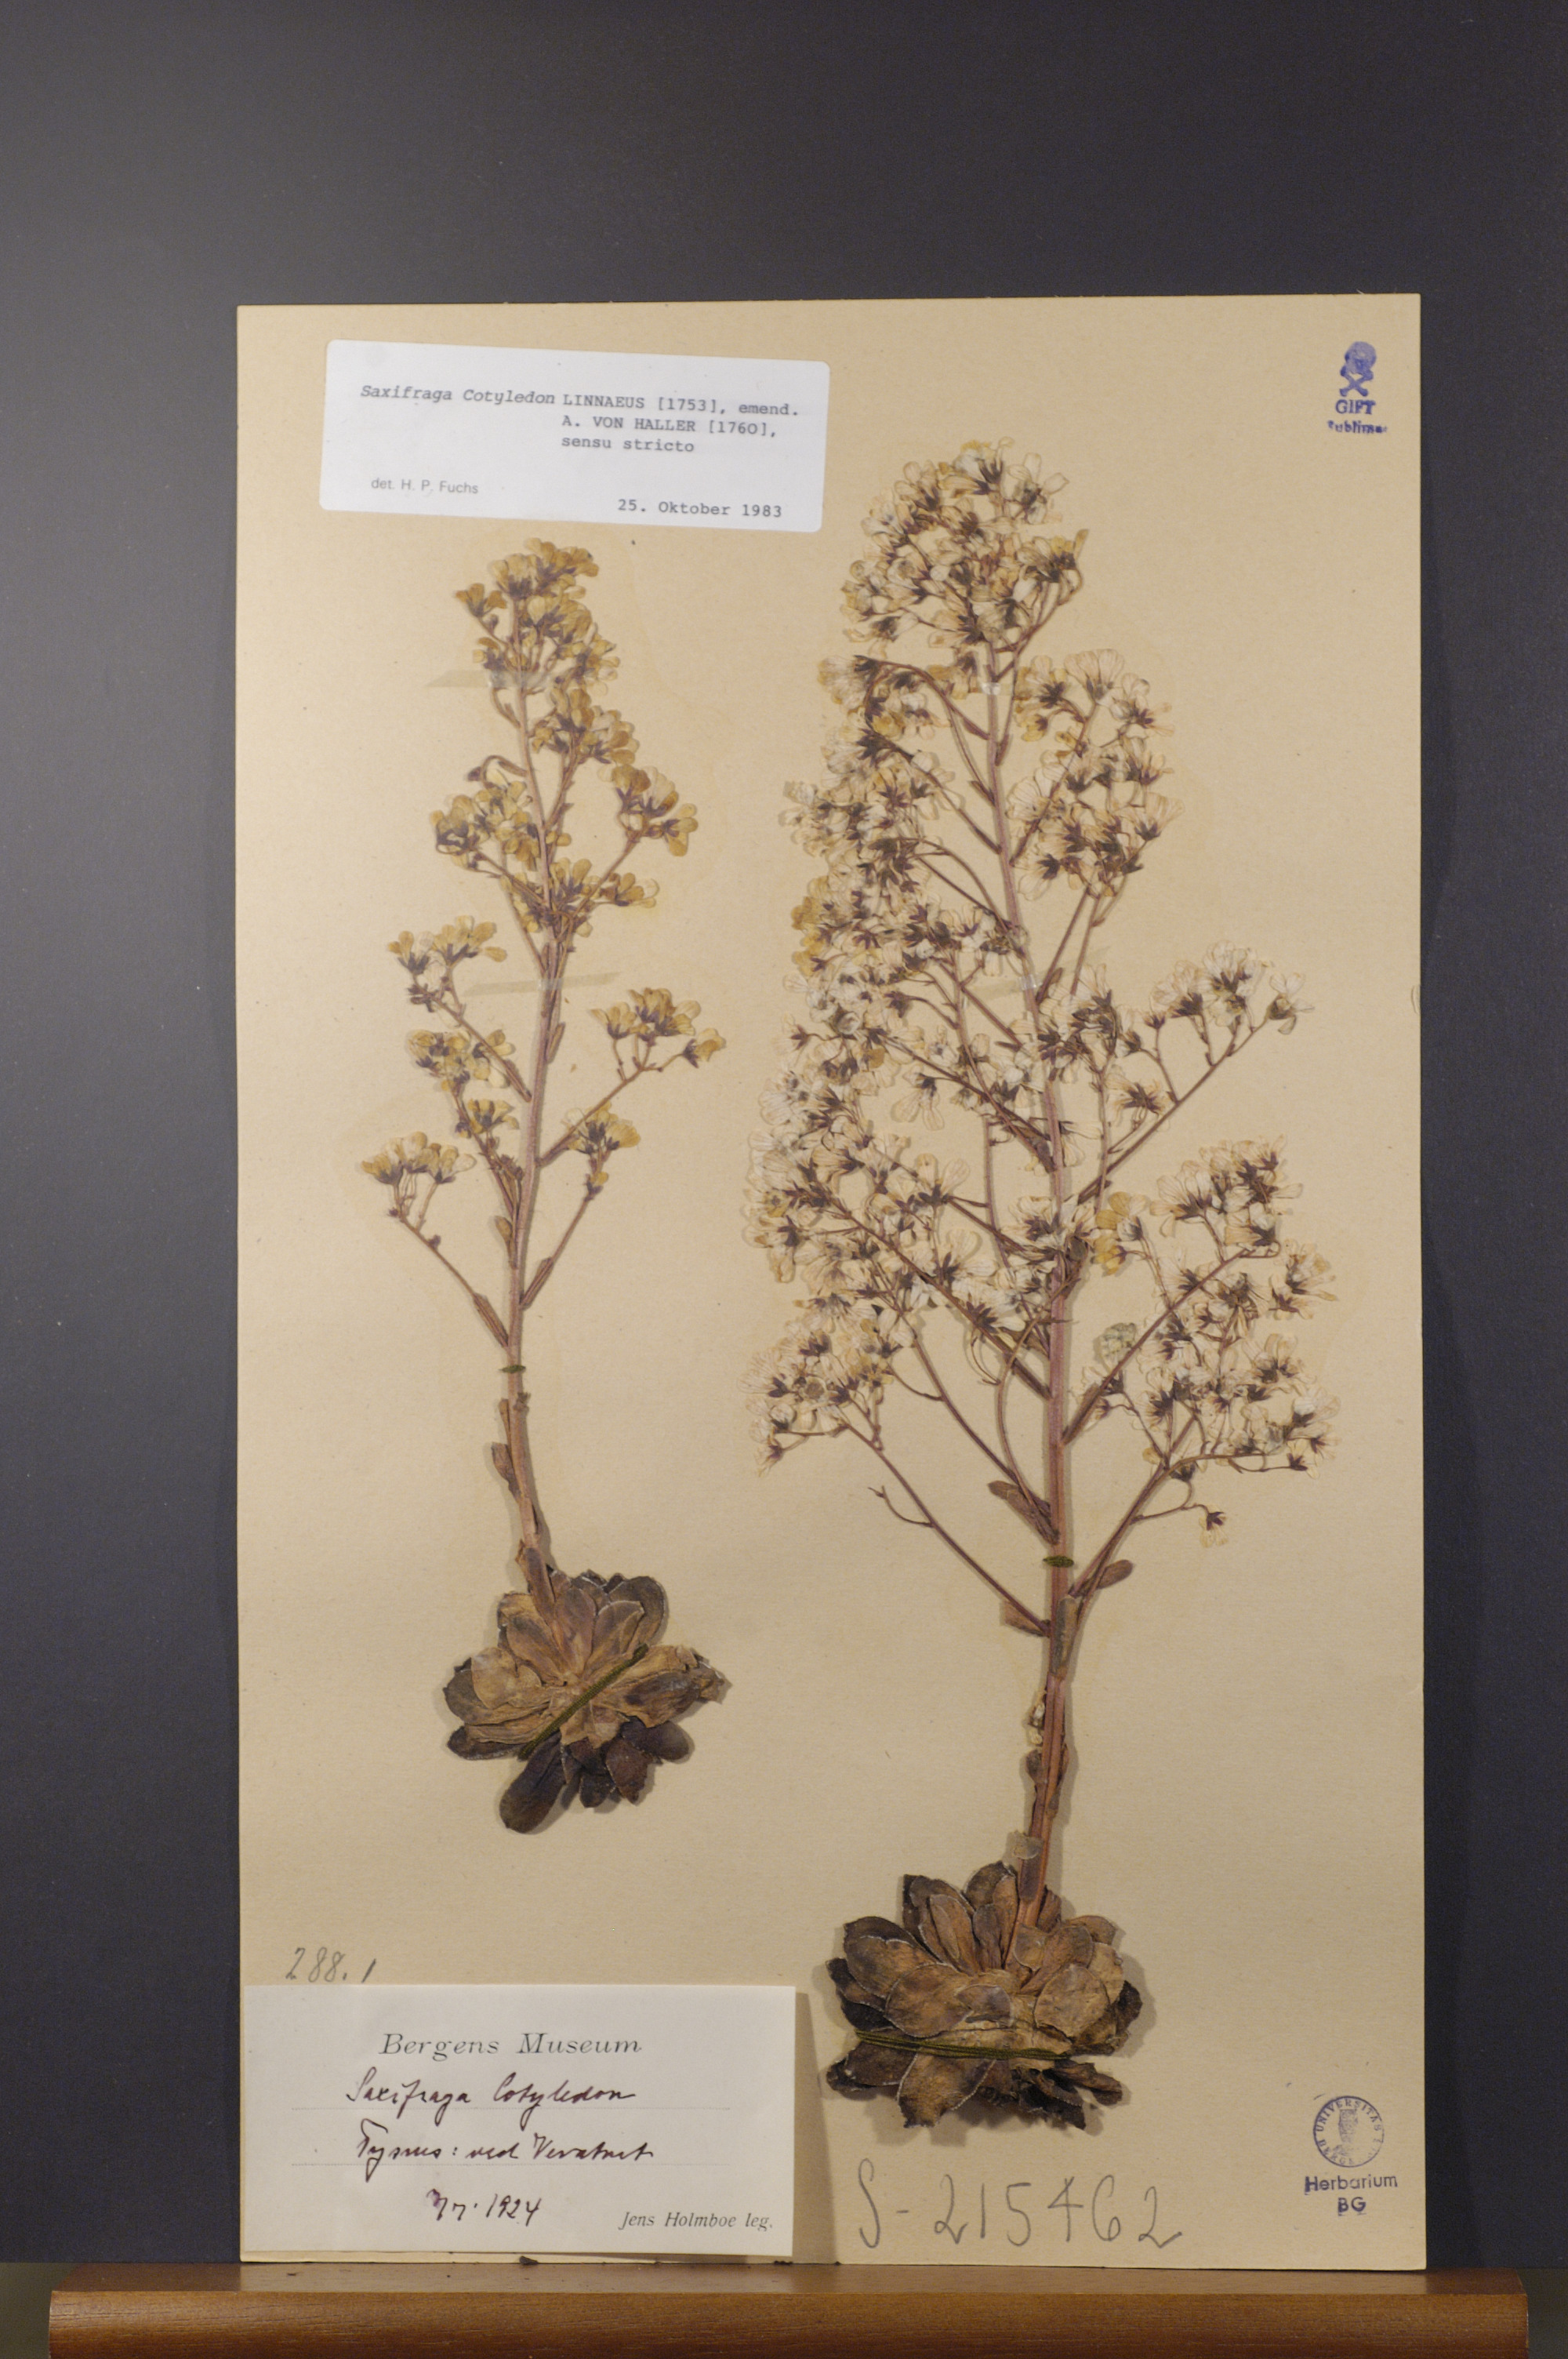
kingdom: Plantae
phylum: Tracheophyta
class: Magnoliopsida
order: Saxifragales
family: Saxifragaceae
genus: Saxifraga
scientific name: Saxifraga cotyledon
